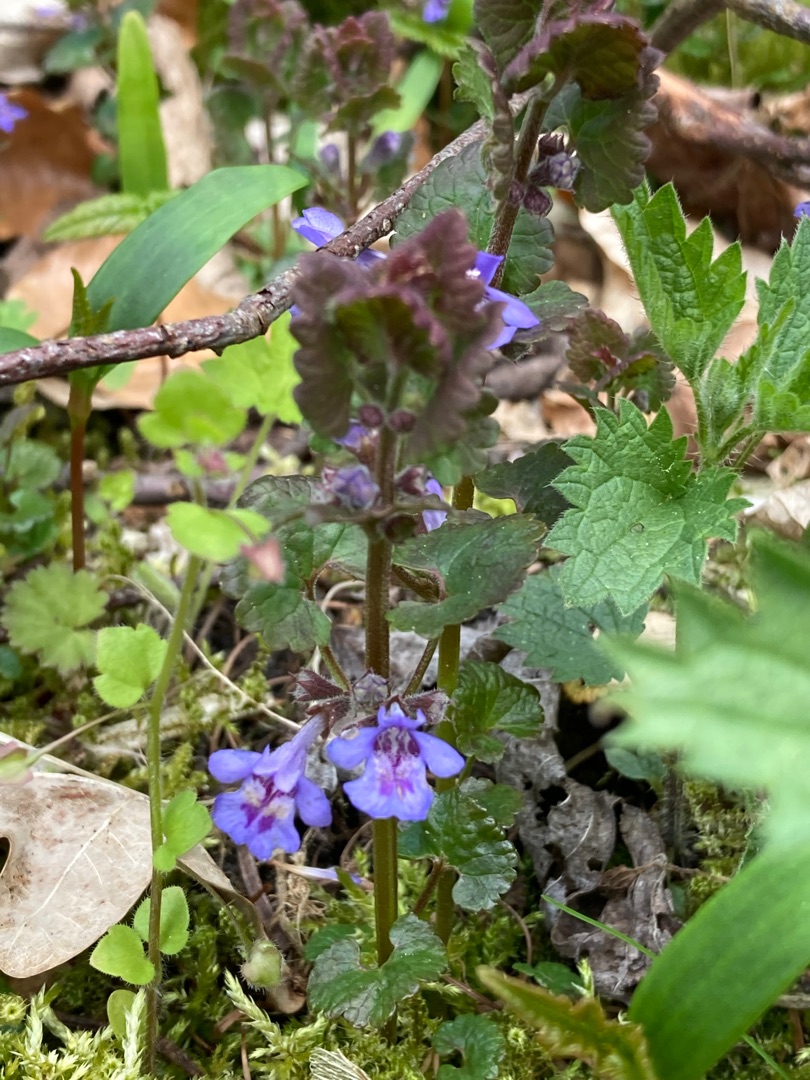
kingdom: Plantae
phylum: Tracheophyta
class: Magnoliopsida
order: Lamiales
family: Lamiaceae
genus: Glechoma
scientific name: Glechoma hederacea
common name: Korsknap
